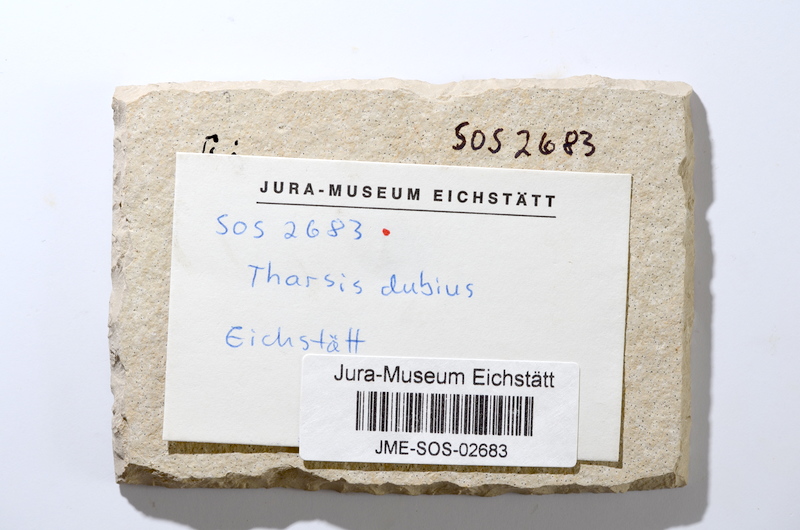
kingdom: Animalia
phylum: Chordata
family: Ascalaboidae
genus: Tharsis
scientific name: Tharsis dubius
